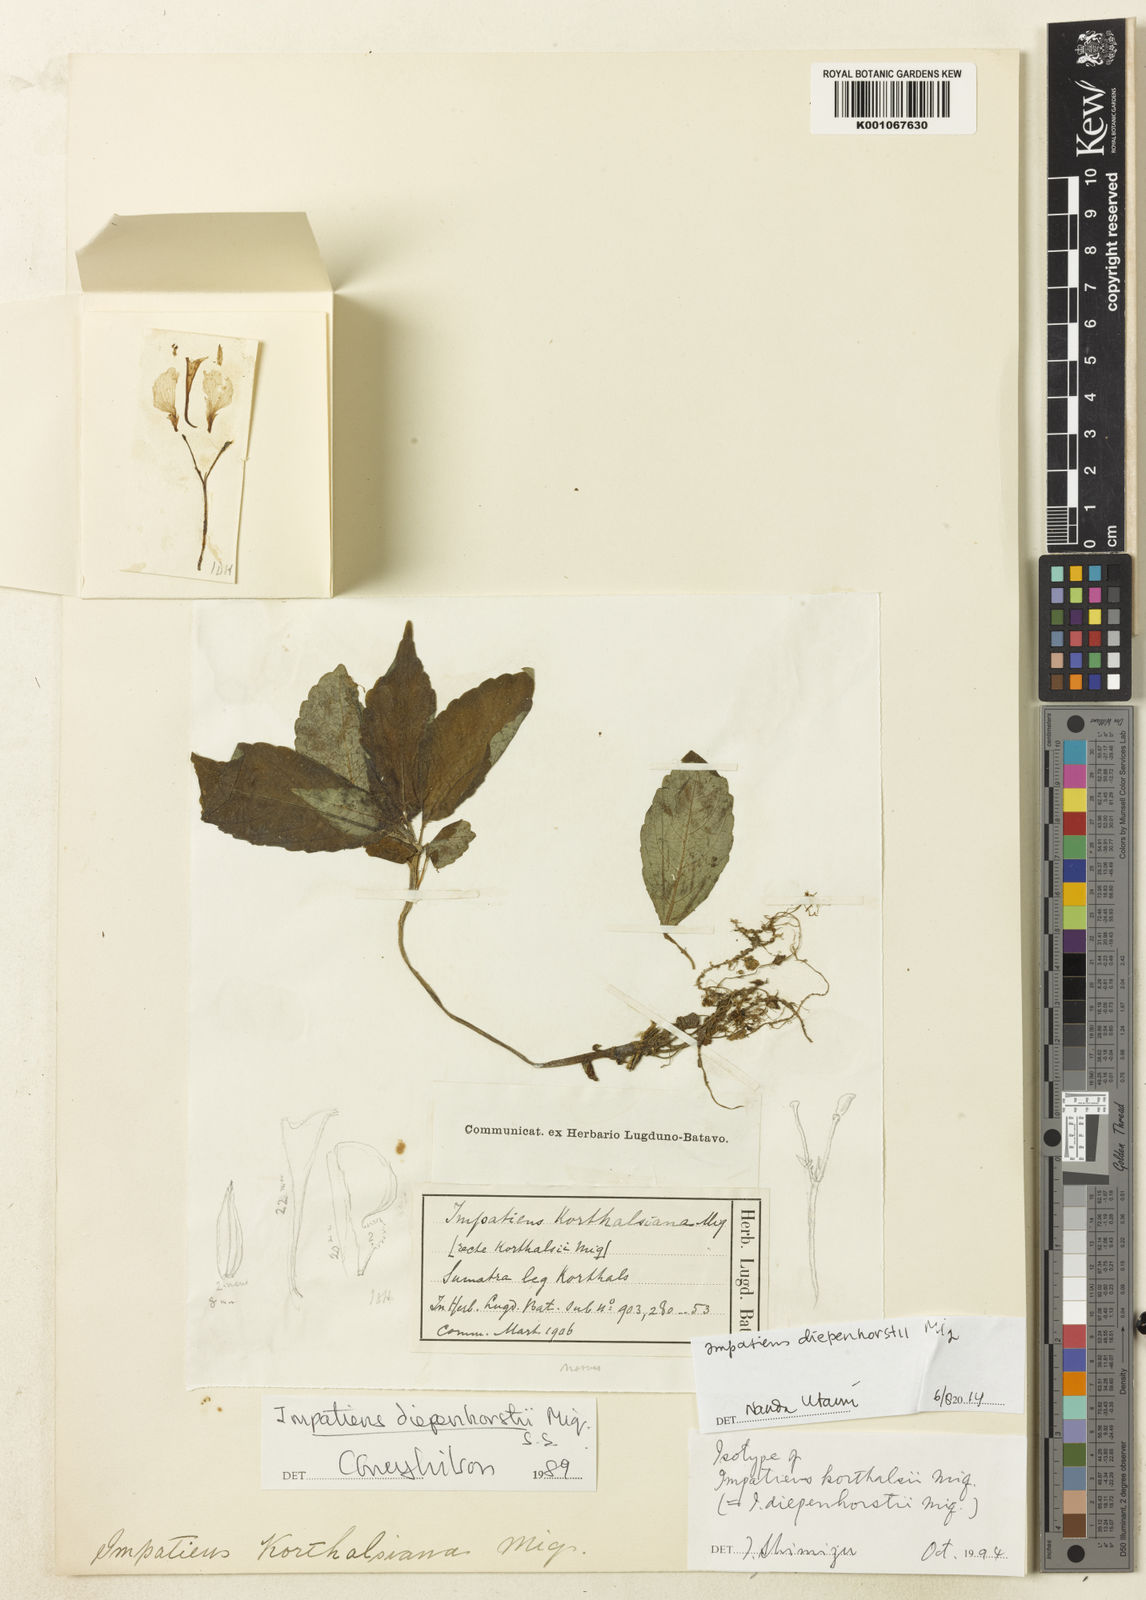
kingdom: Plantae
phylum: Tracheophyta
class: Magnoliopsida
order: Ericales
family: Balsaminaceae
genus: Impatiens
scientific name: Impatiens diepenhorstii
